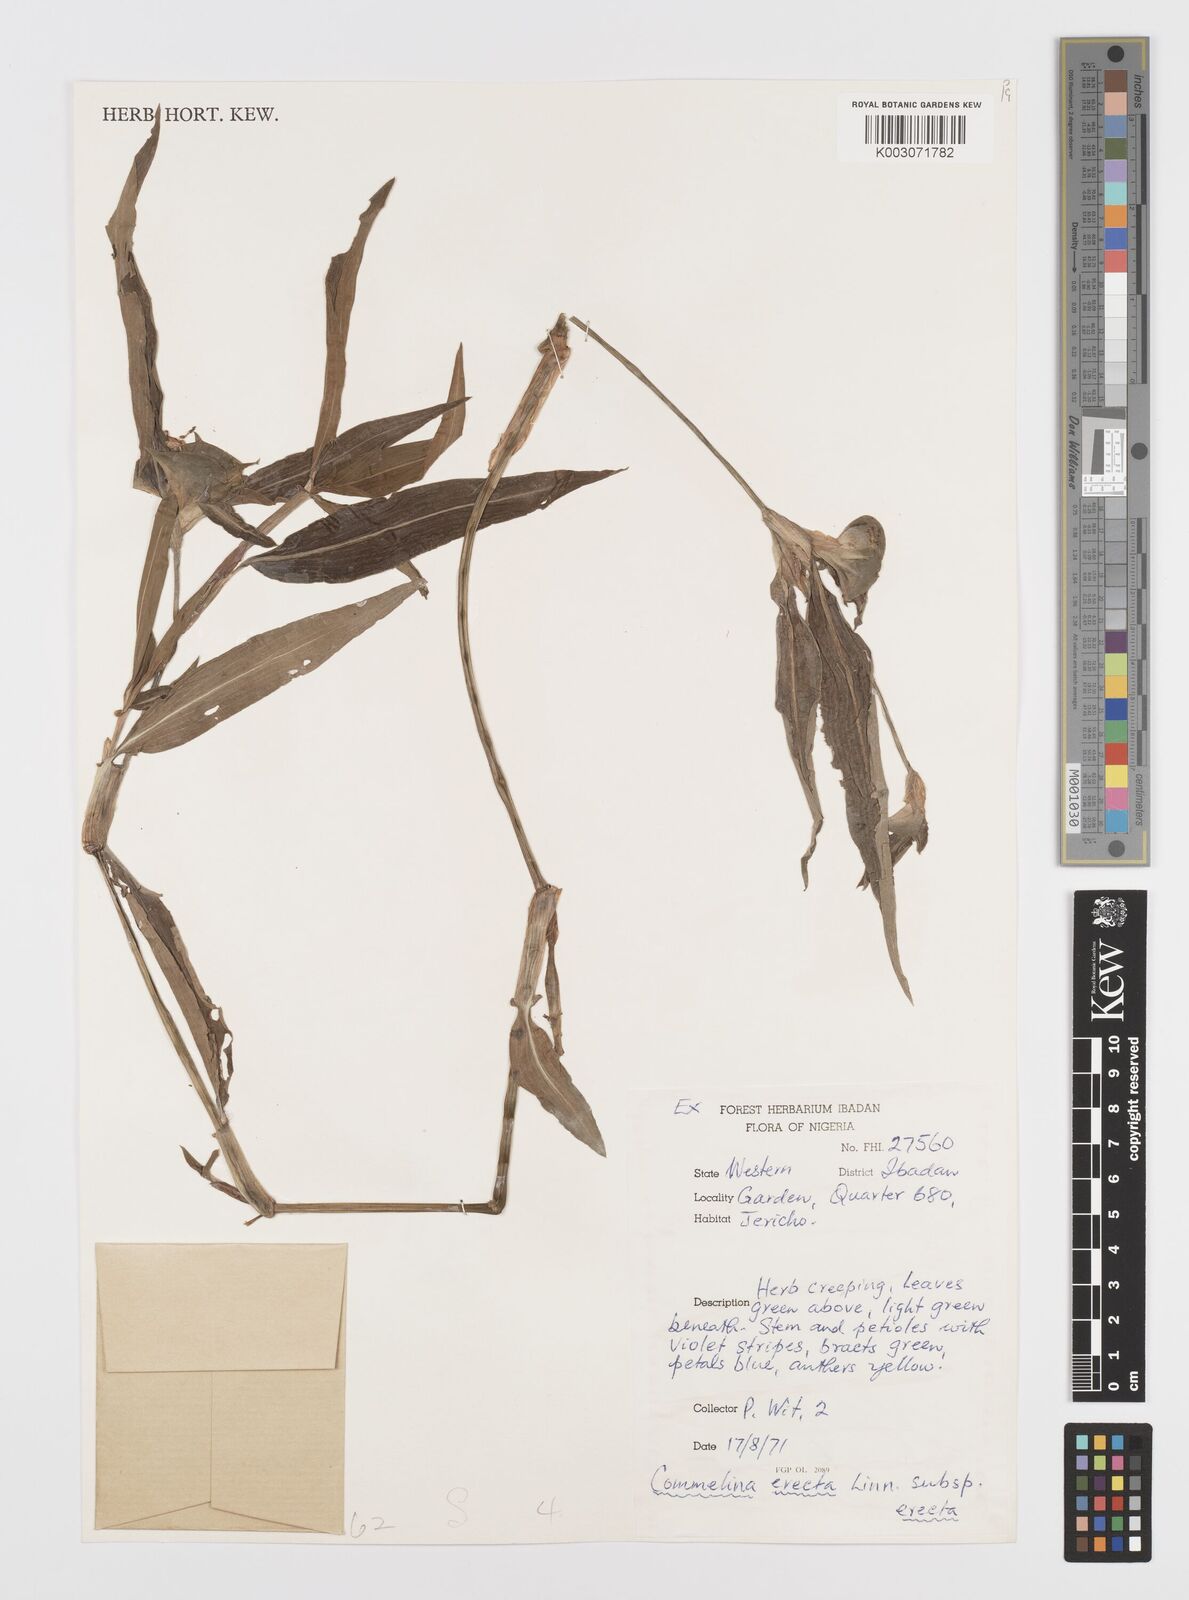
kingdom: Plantae
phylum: Tracheophyta
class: Liliopsida
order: Commelinales
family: Commelinaceae
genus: Commelina
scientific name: Commelina erecta
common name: Blousel blommetjie
